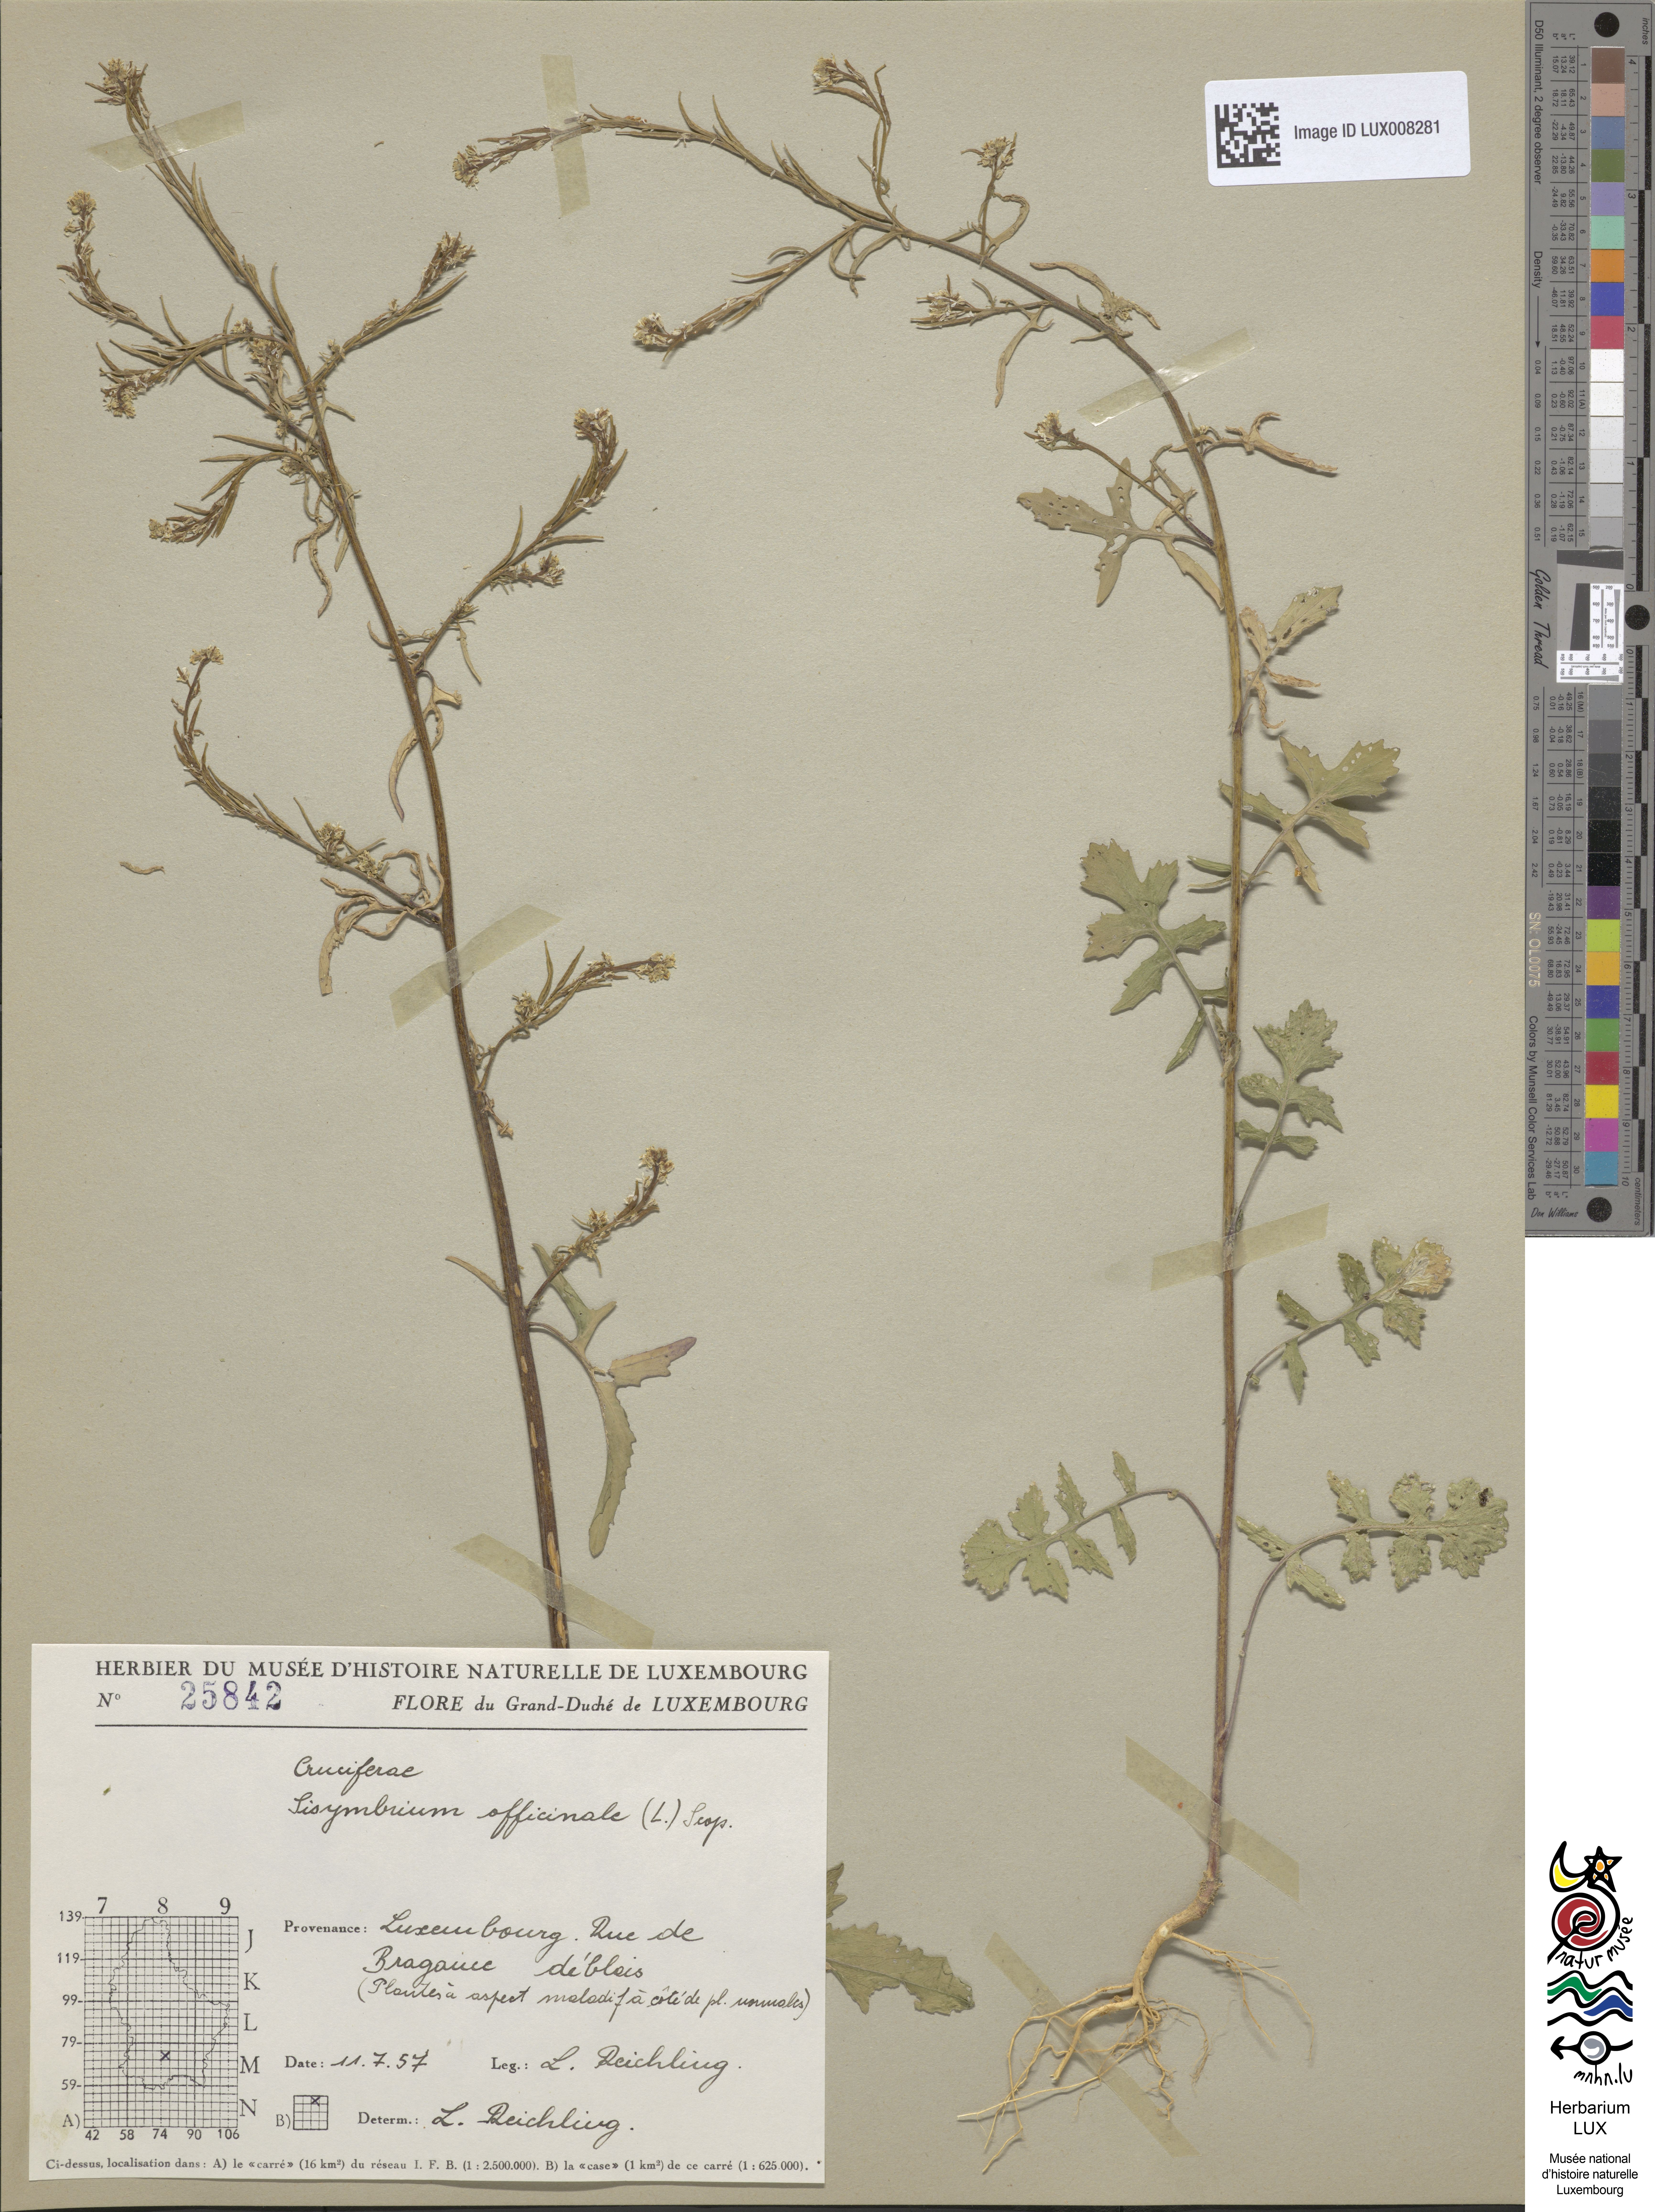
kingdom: Plantae
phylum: Tracheophyta
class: Magnoliopsida
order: Brassicales
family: Brassicaceae
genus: Sisymbrium
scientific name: Sisymbrium officinale
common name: Hedge mustard
